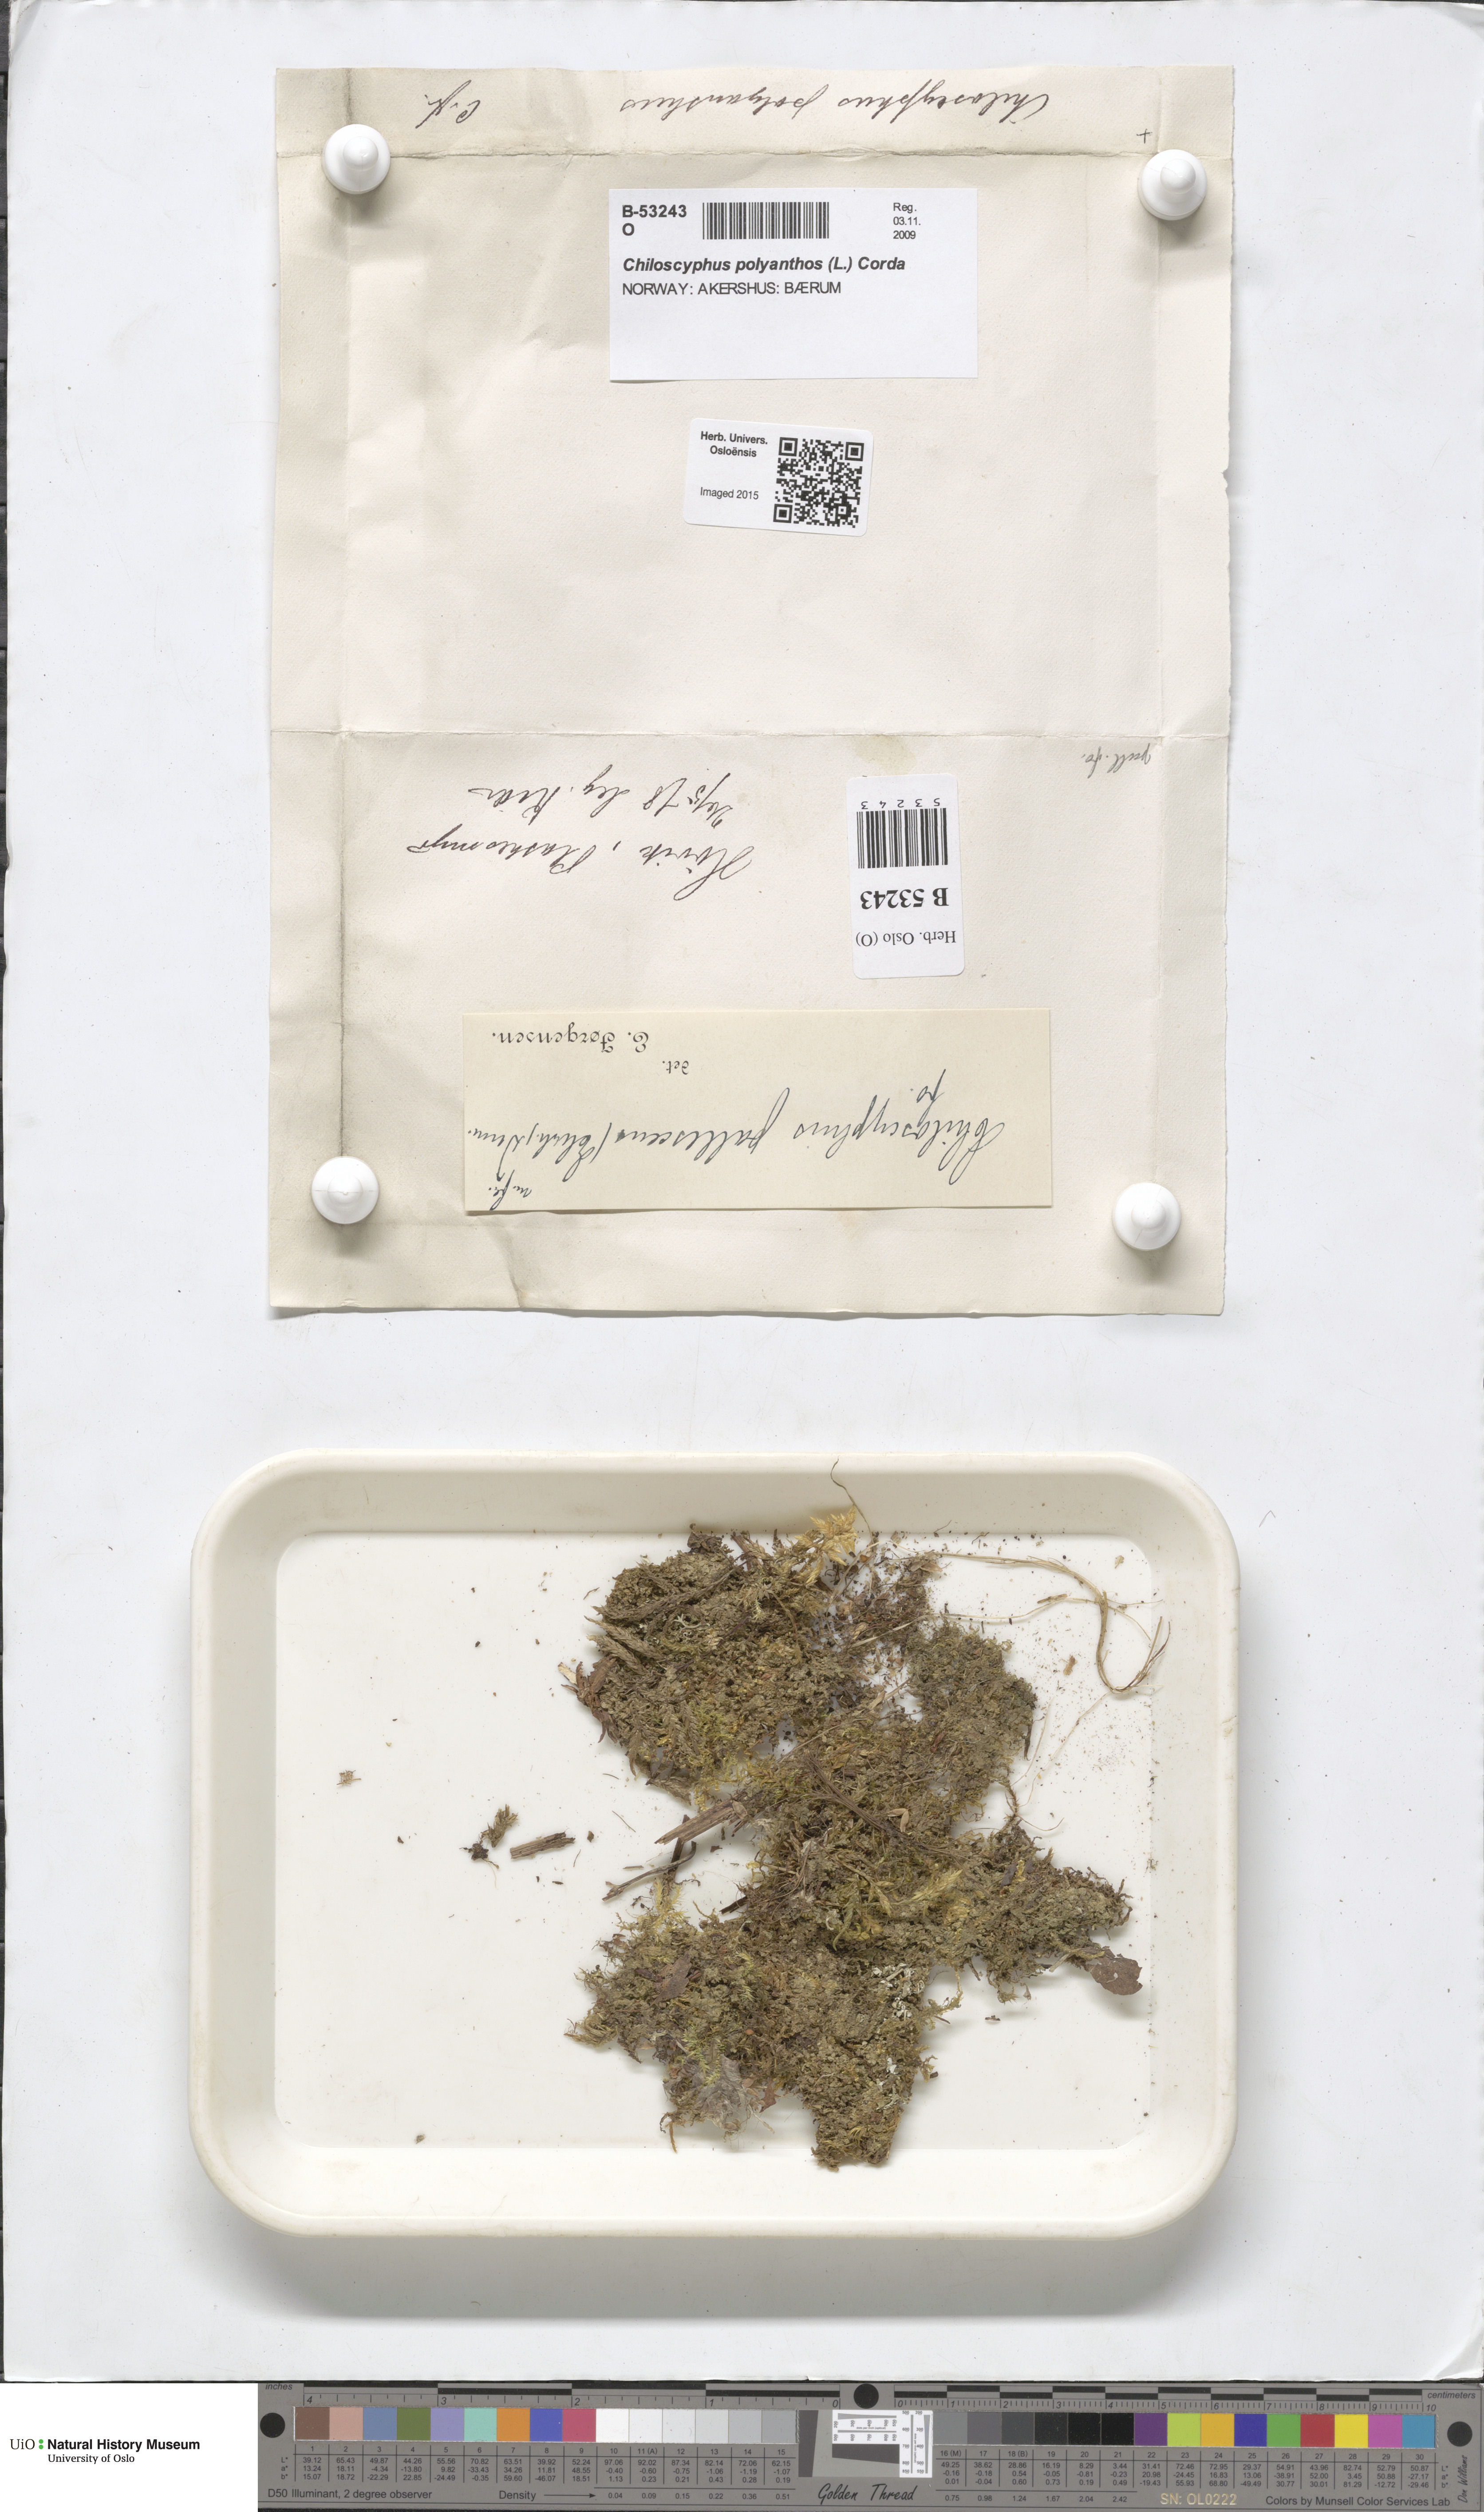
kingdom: Plantae
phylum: Marchantiophyta
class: Jungermanniopsida
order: Jungermanniales
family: Lophocoleaceae
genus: Chiloscyphus
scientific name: Chiloscyphus polyanthos
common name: Square-leaved crestwort
